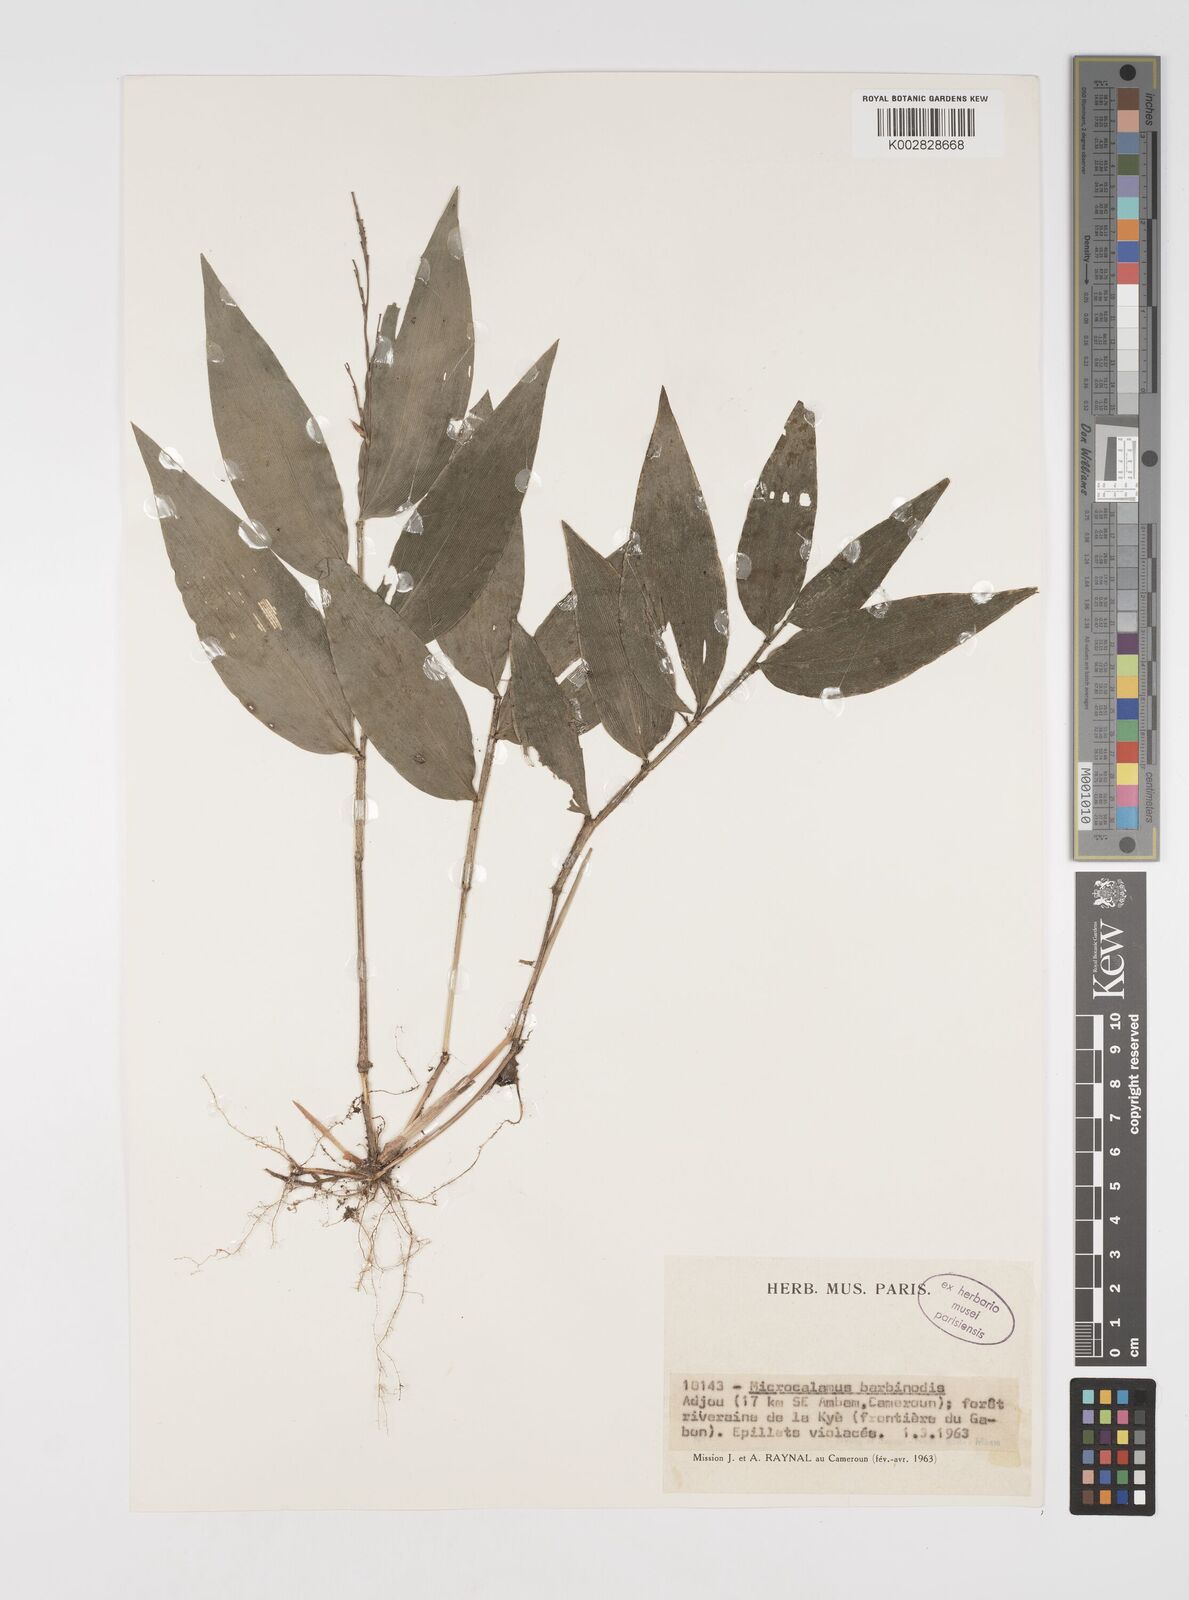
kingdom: Plantae
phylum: Tracheophyta
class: Liliopsida
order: Poales
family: Poaceae
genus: Microcalamus
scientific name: Microcalamus barbinodis
